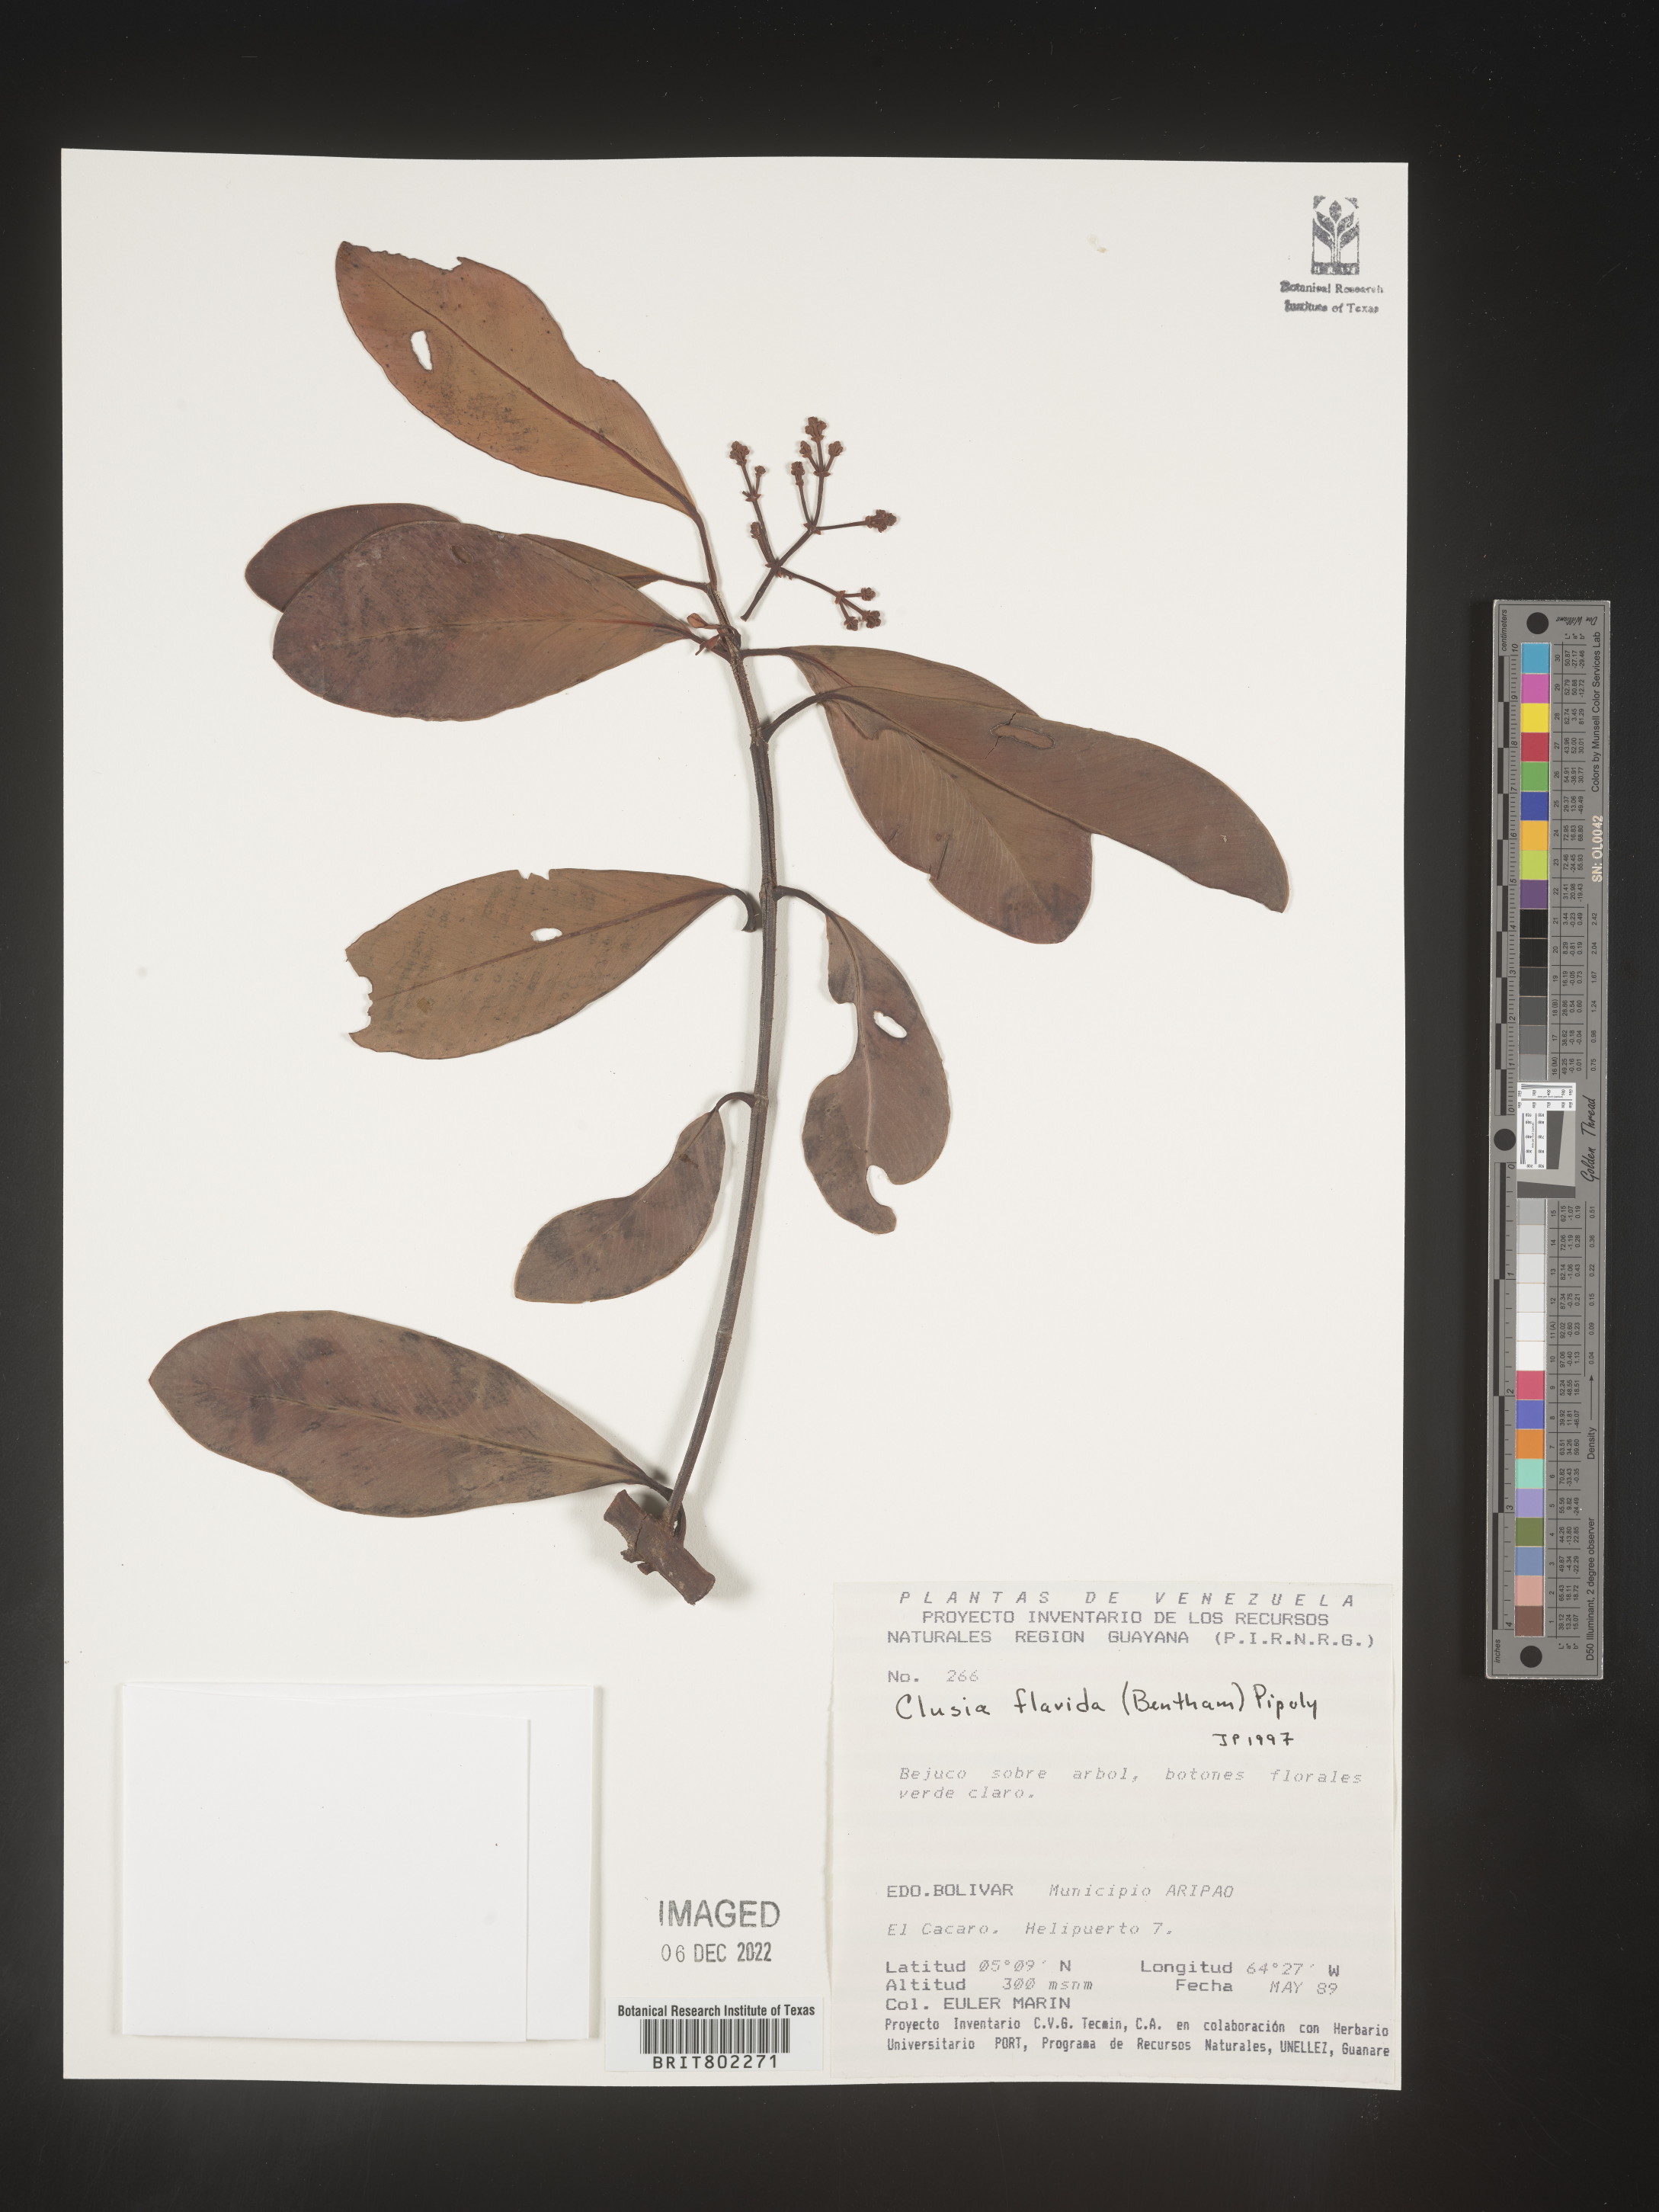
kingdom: Plantae
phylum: Tracheophyta
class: Magnoliopsida
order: Malpighiales
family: Clusiaceae
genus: Clusia
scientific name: Clusia flavida
